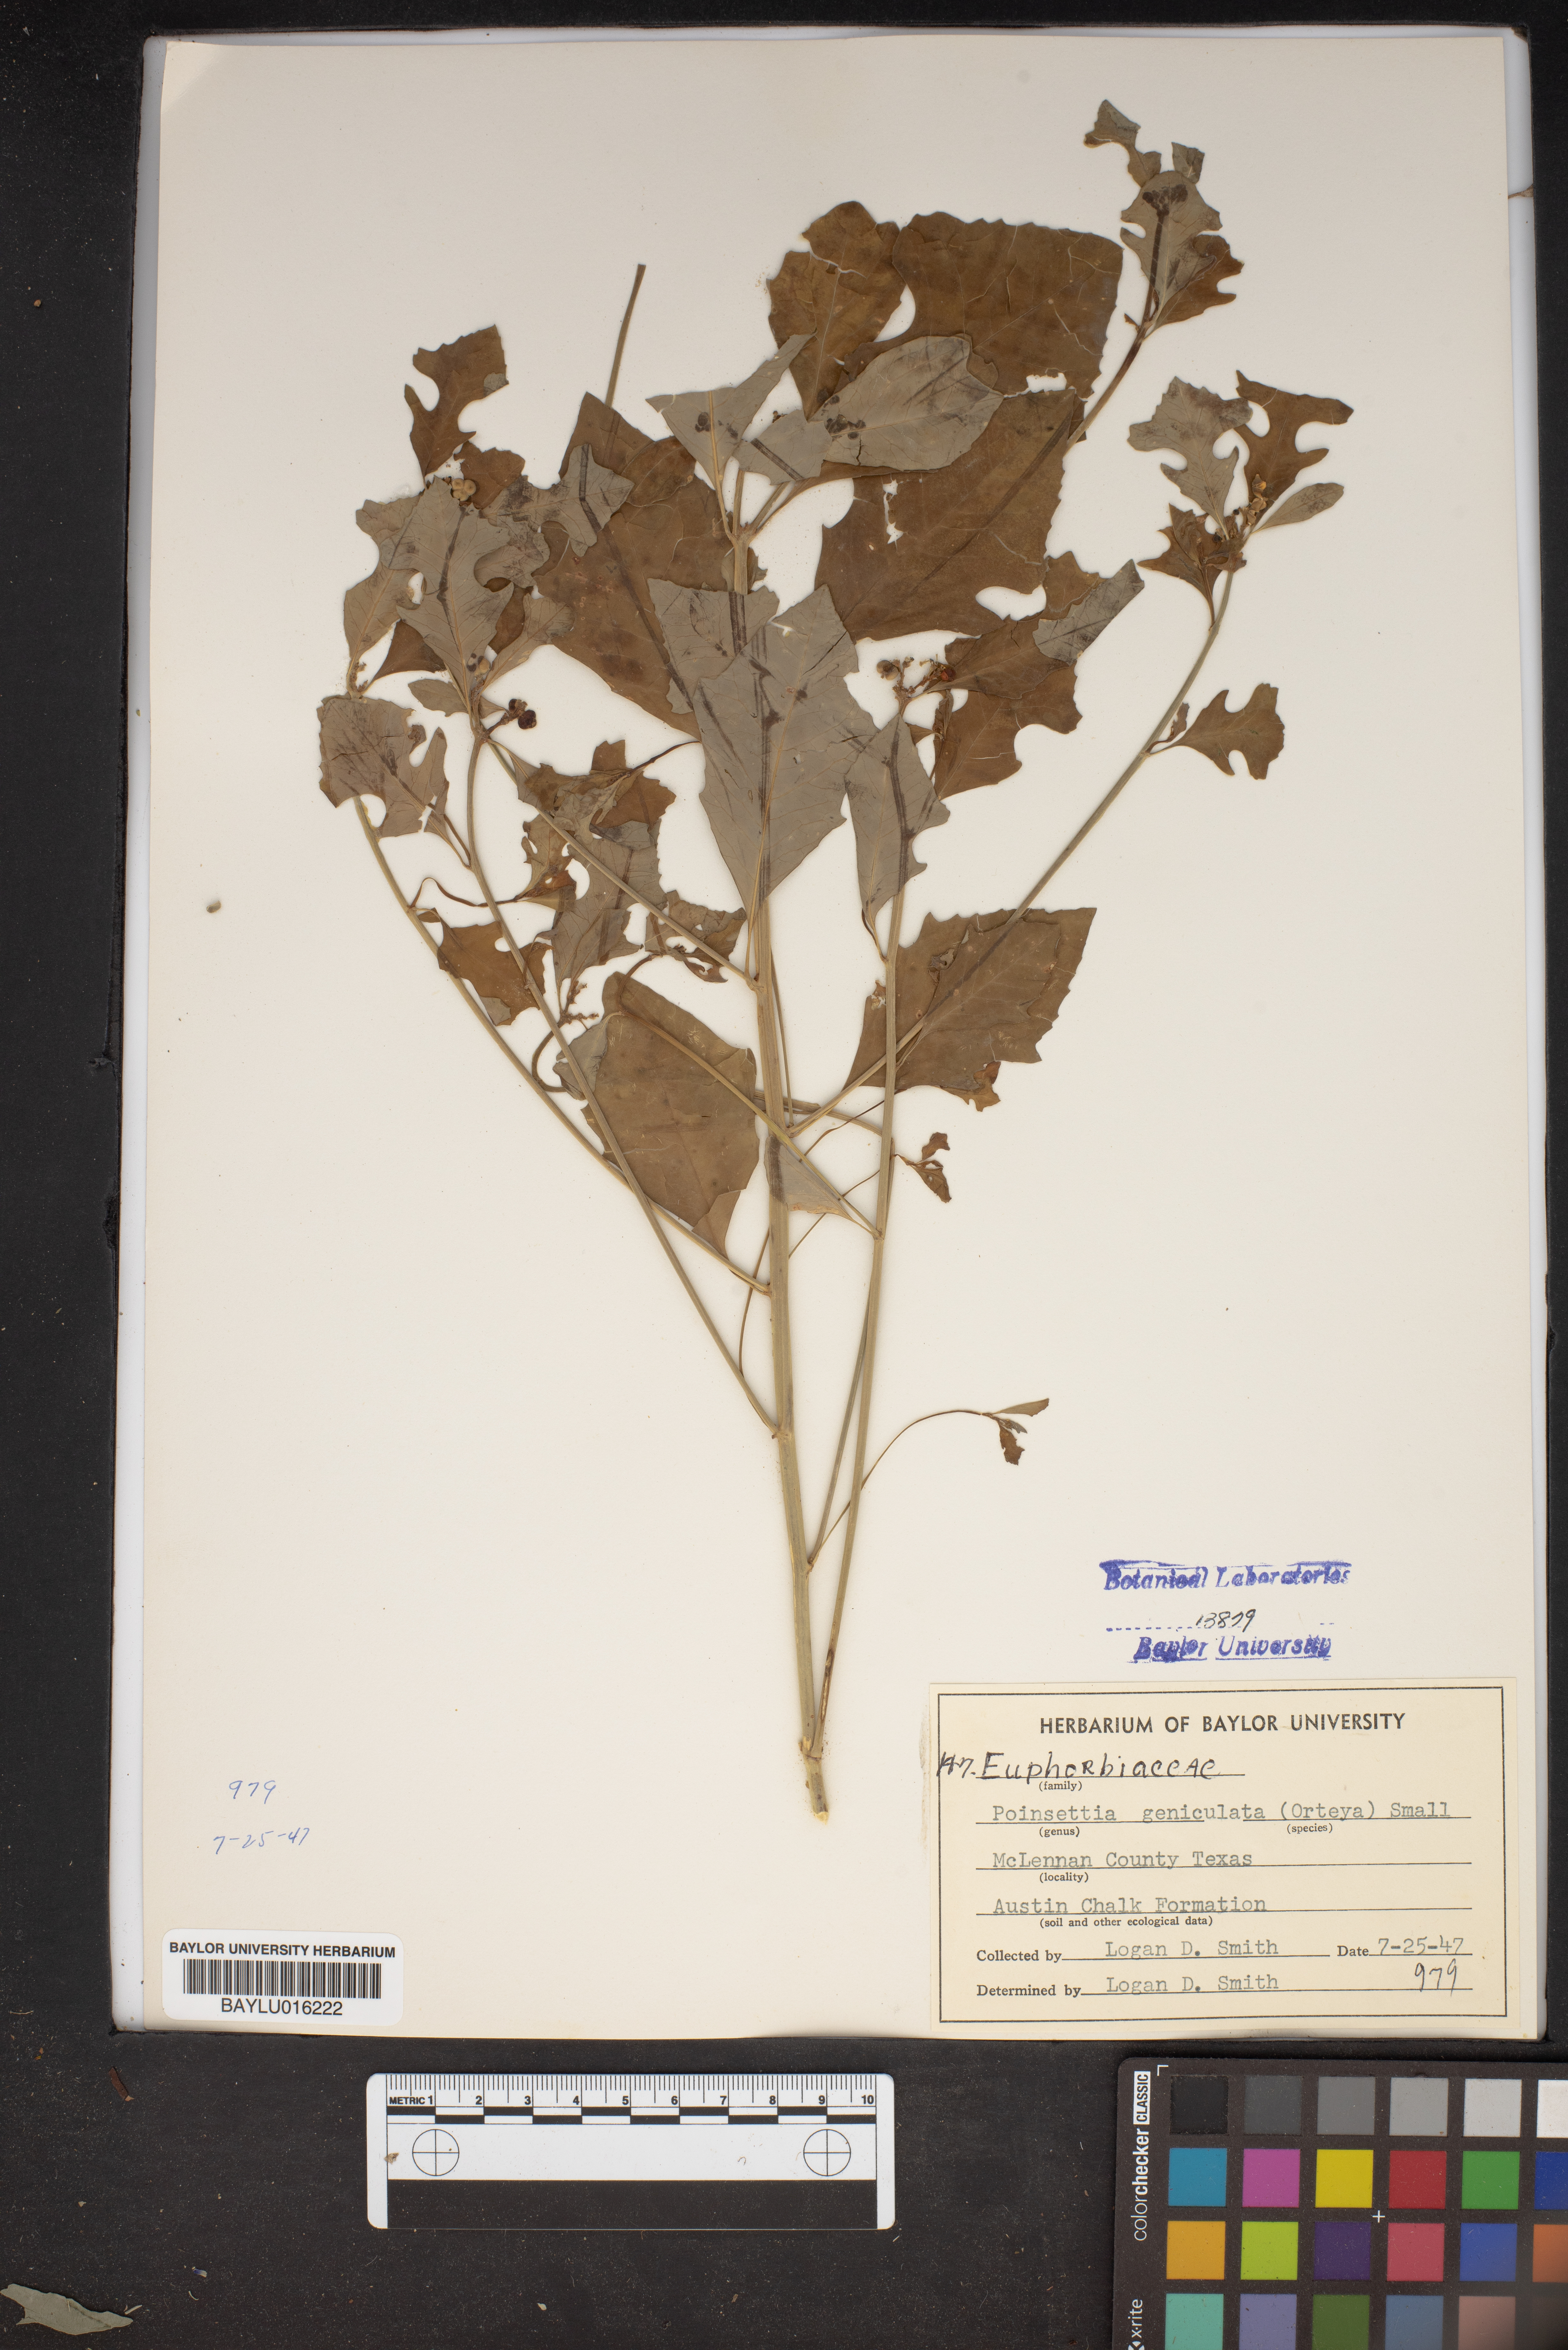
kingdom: Plantae
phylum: Tracheophyta
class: Magnoliopsida
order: Malpighiales
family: Euphorbiaceae
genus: Euphorbia
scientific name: Euphorbia heterophylla
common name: Mexican fireplant
